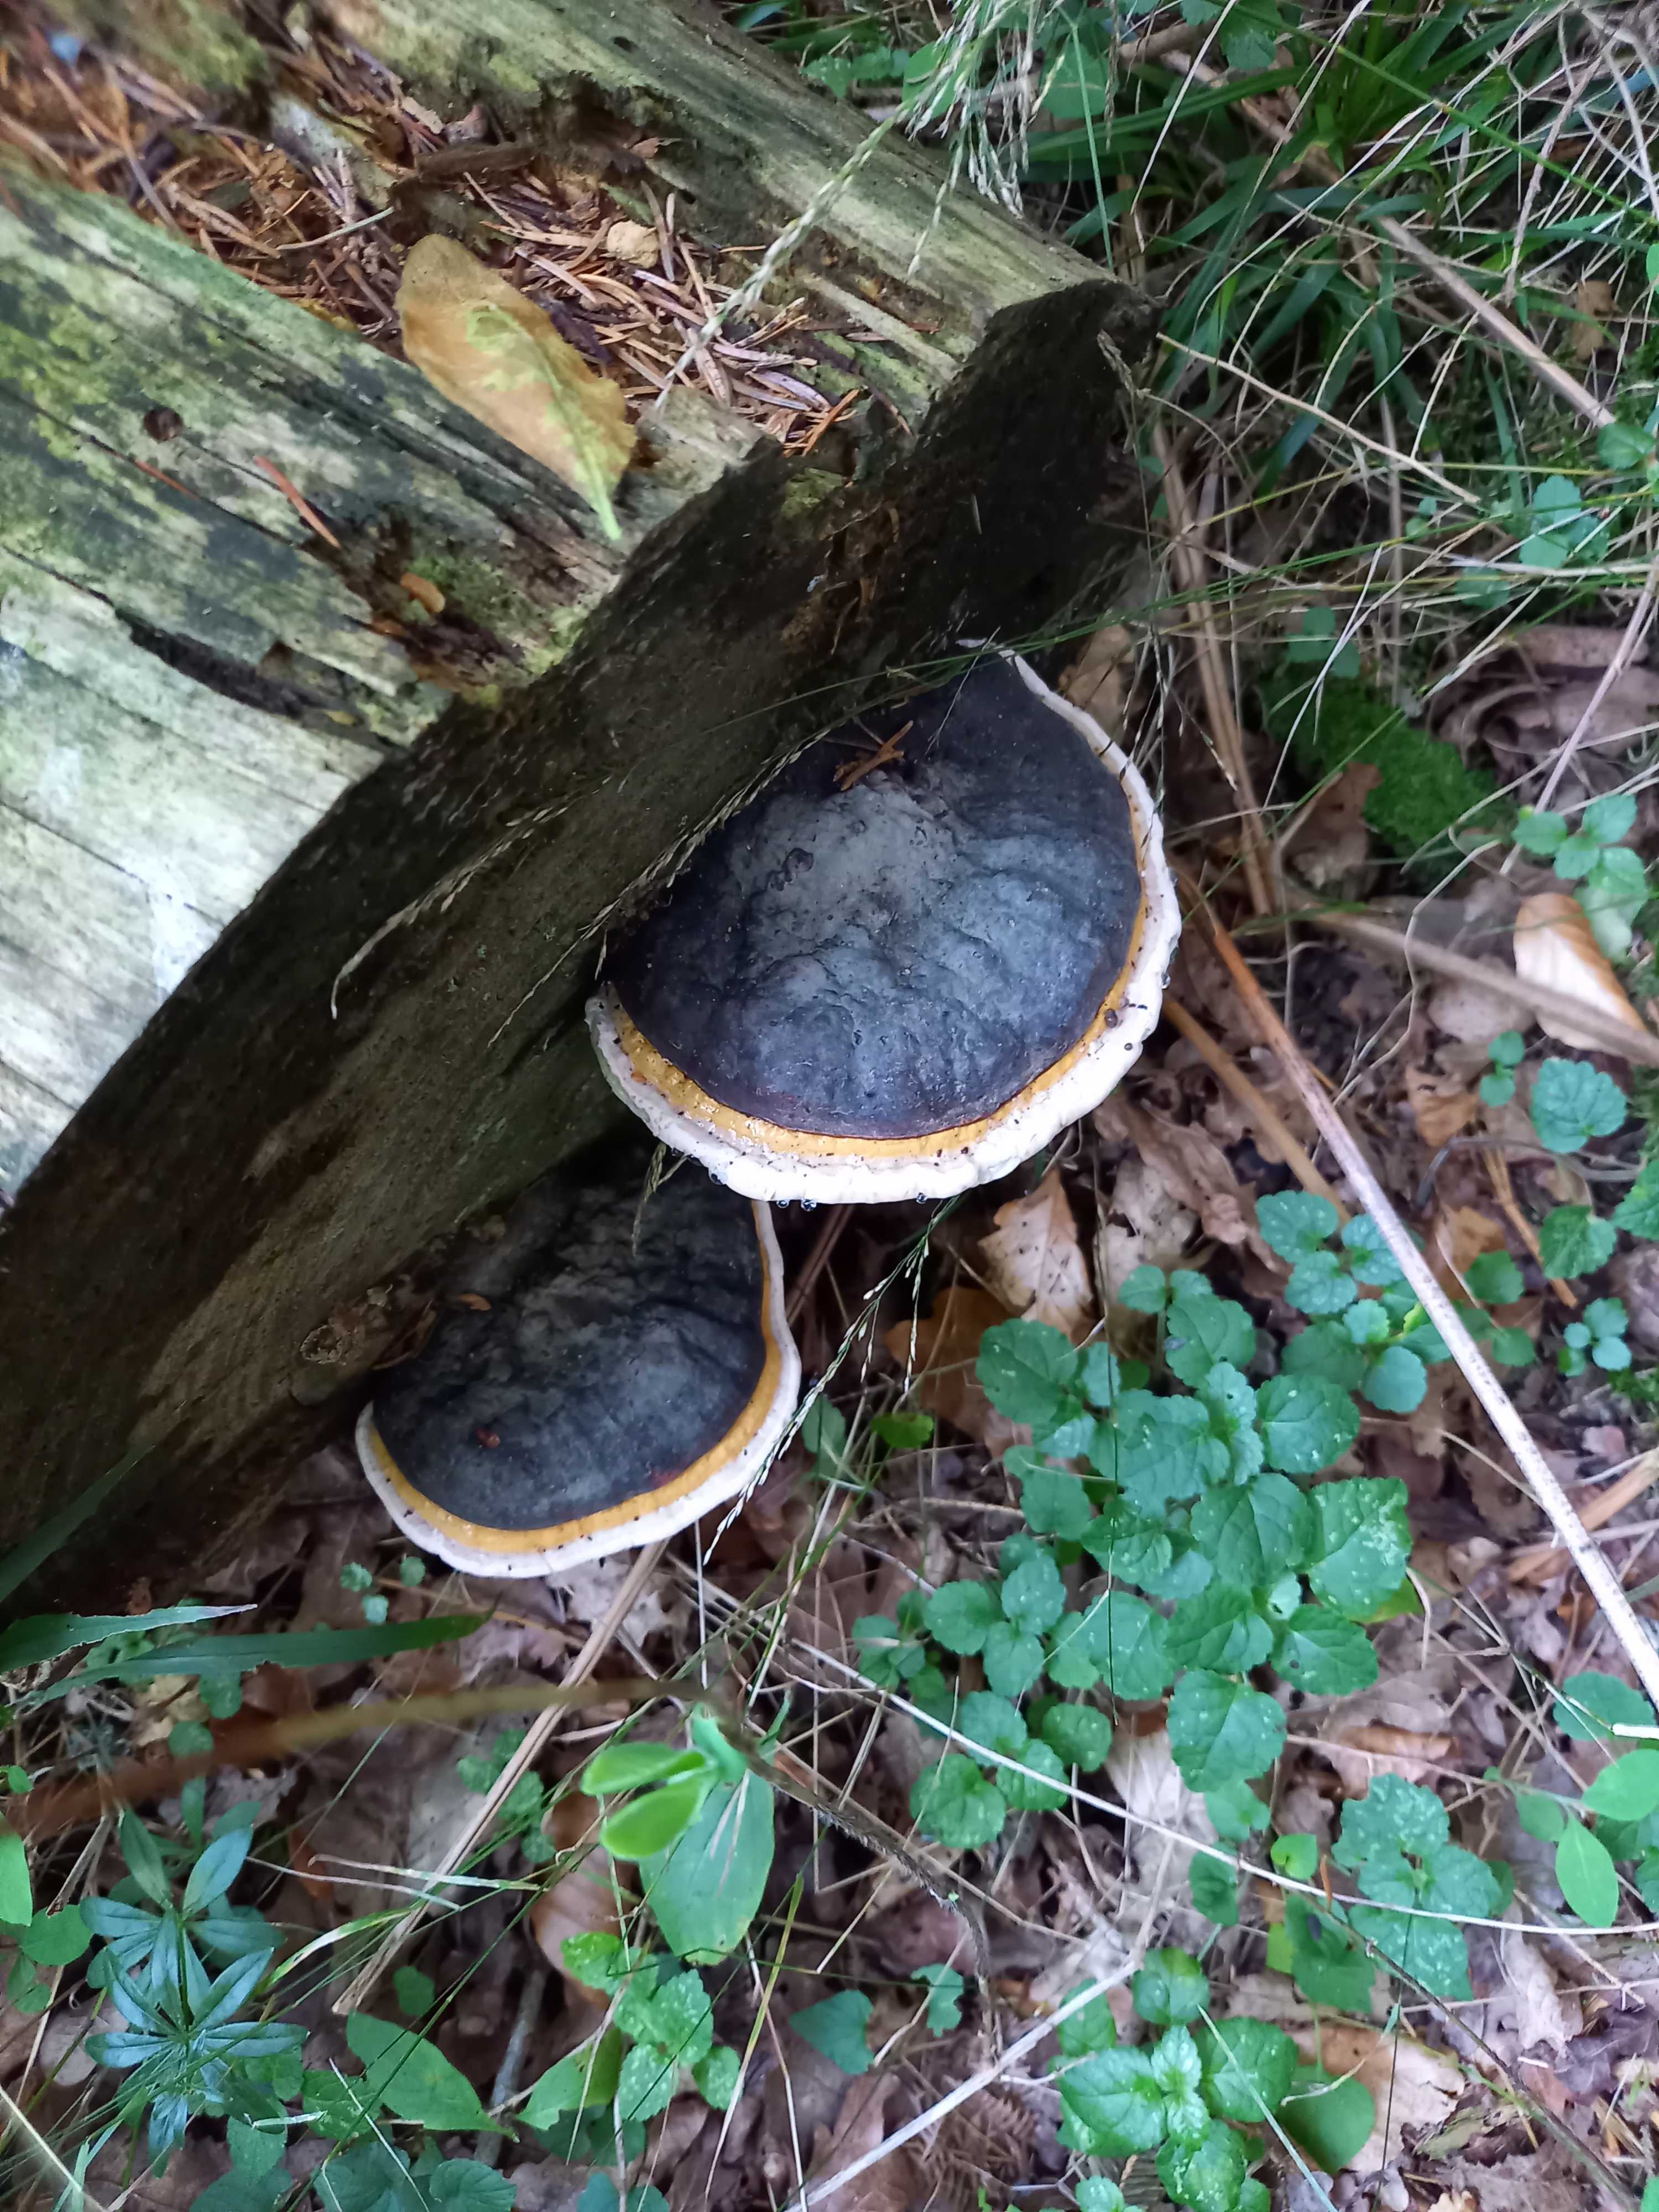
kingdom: Fungi
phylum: Basidiomycota
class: Agaricomycetes
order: Polyporales
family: Fomitopsidaceae
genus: Fomitopsis
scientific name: Fomitopsis pinicola
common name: randbæltet hovporesvamp
